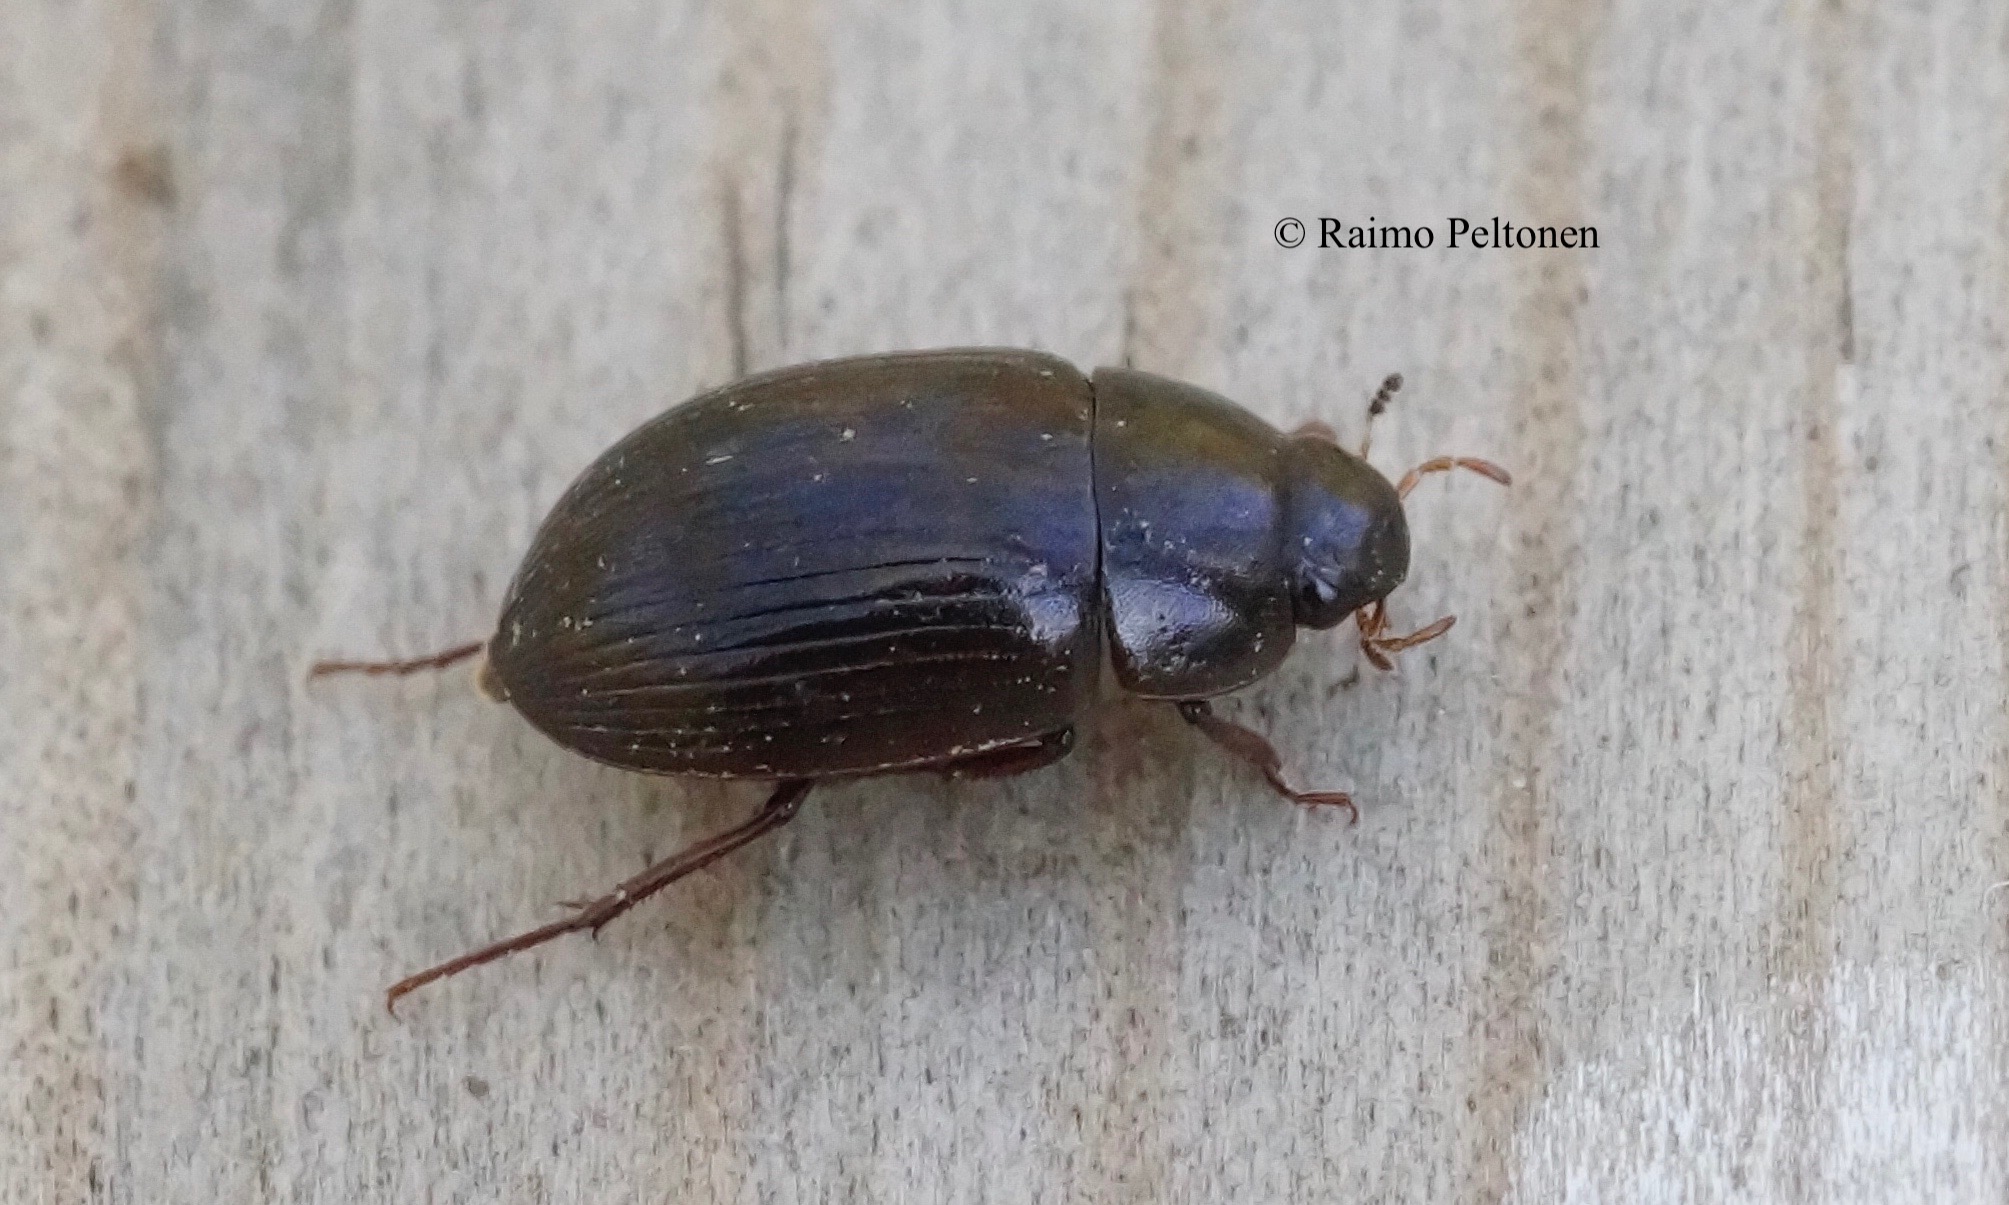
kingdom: Animalia
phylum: Arthropoda
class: Insecta
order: Coleoptera
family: Hydrophilidae
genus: Hydrobius
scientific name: Hydrobius
